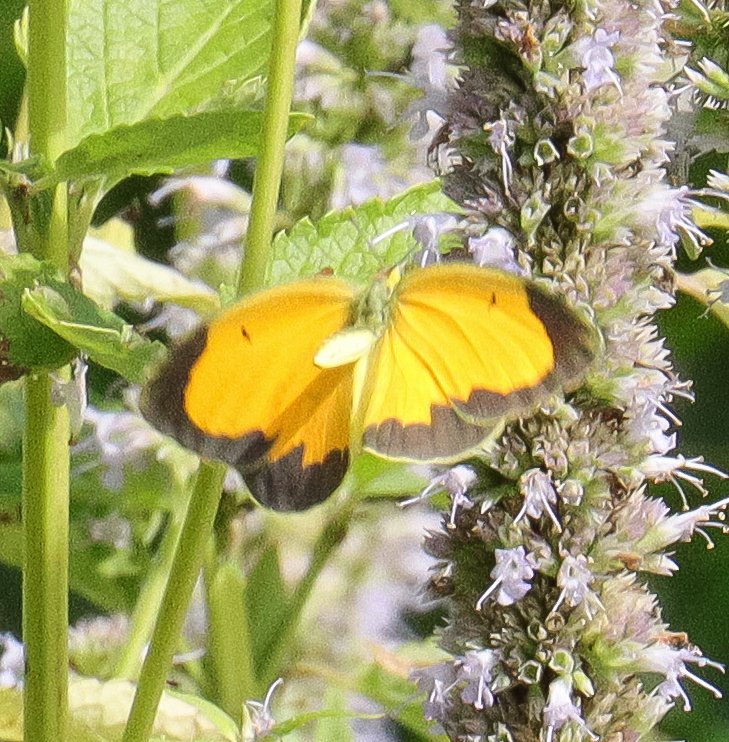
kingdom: Animalia
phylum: Arthropoda
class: Insecta
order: Lepidoptera
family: Pieridae
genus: Abaeis
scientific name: Abaeis nicippe
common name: Sleepy Orange
